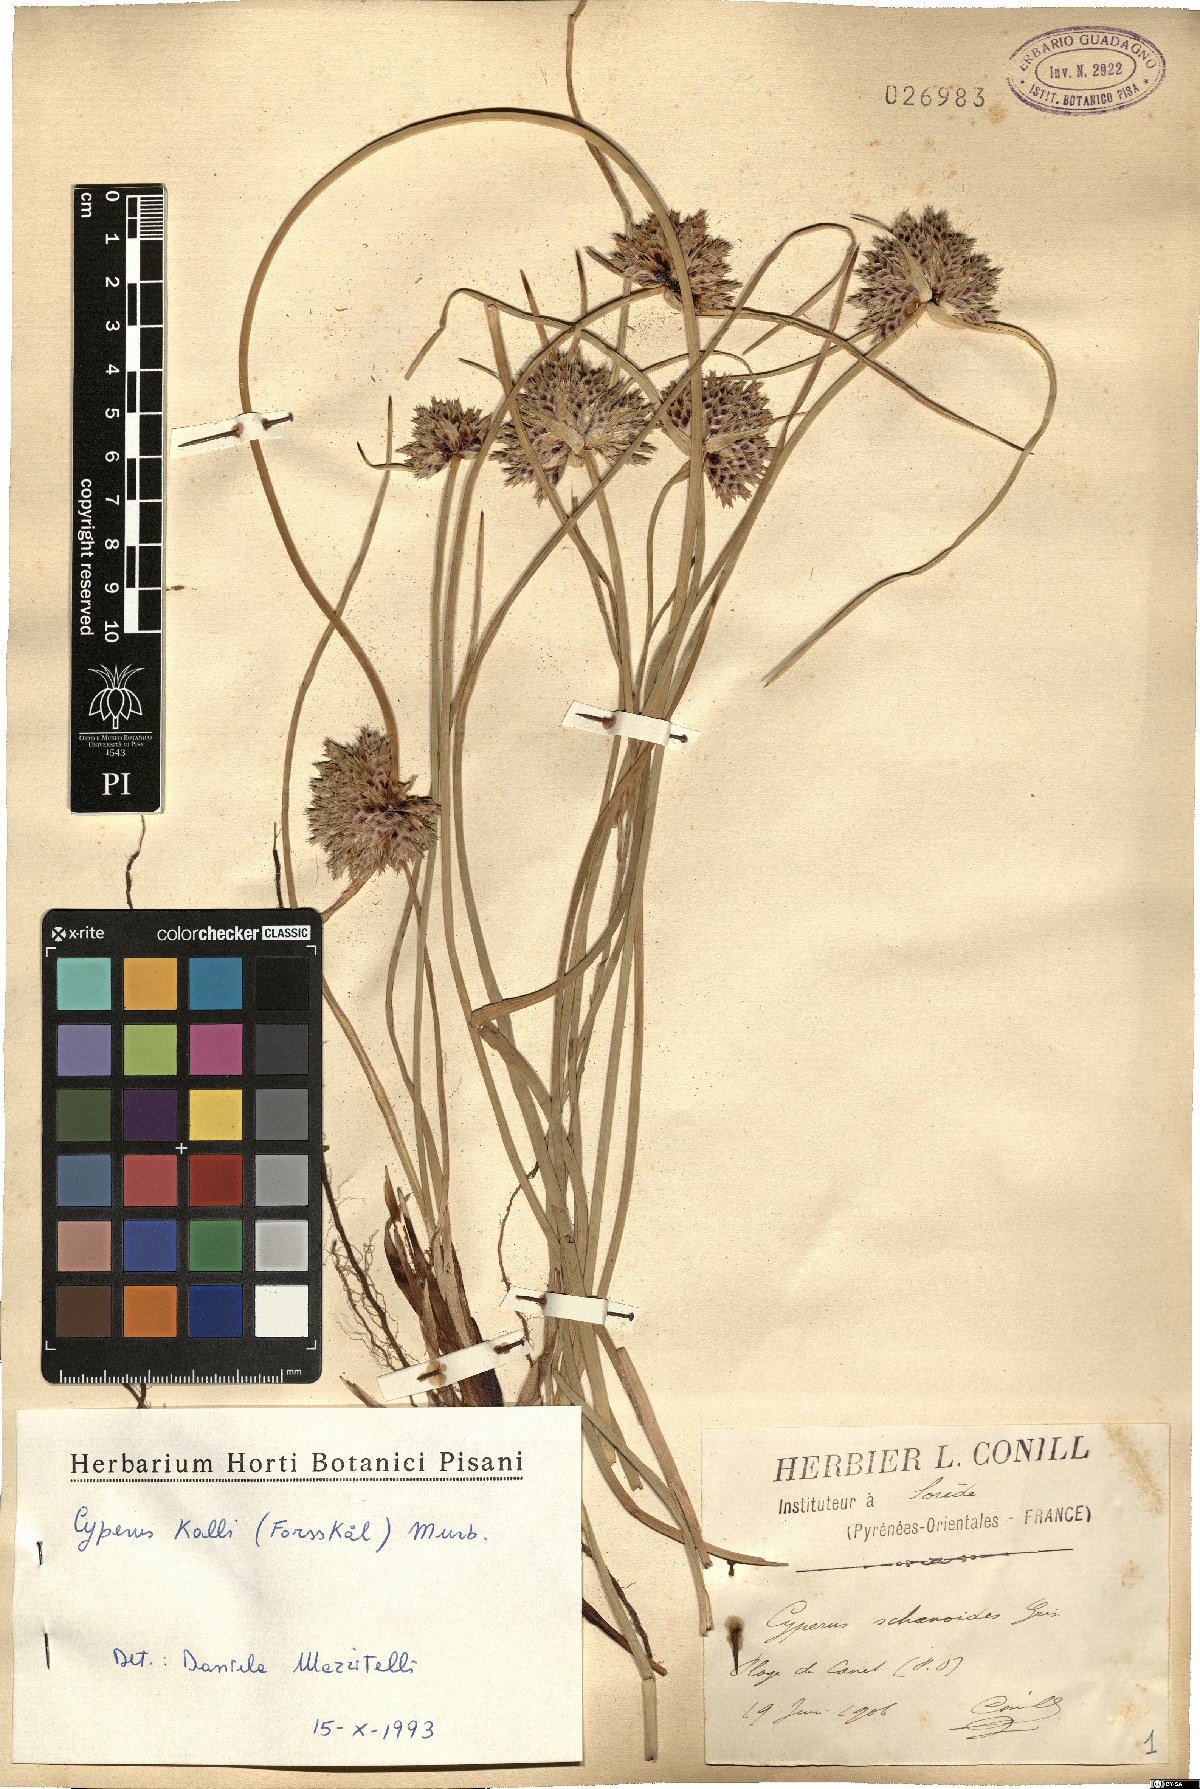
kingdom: Plantae
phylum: Tracheophyta
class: Liliopsida
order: Poales
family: Cyperaceae
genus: Cyperus
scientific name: Cyperus capitatus
